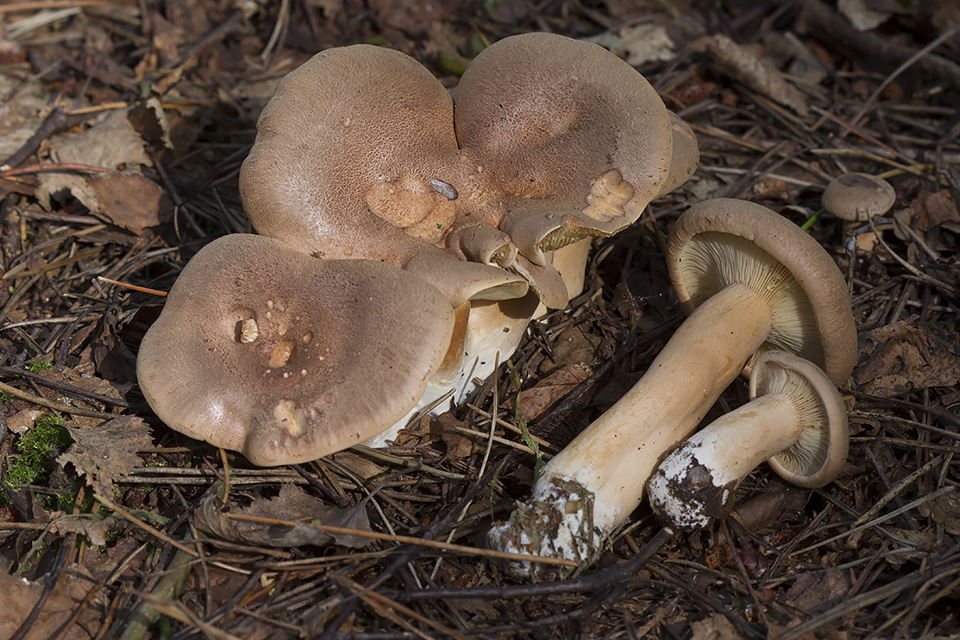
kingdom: Fungi
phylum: Basidiomycota
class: Agaricomycetes
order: Russulales
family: Russulaceae
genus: Lactarius
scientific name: Lactarius helvus
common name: mose-mælkehat
